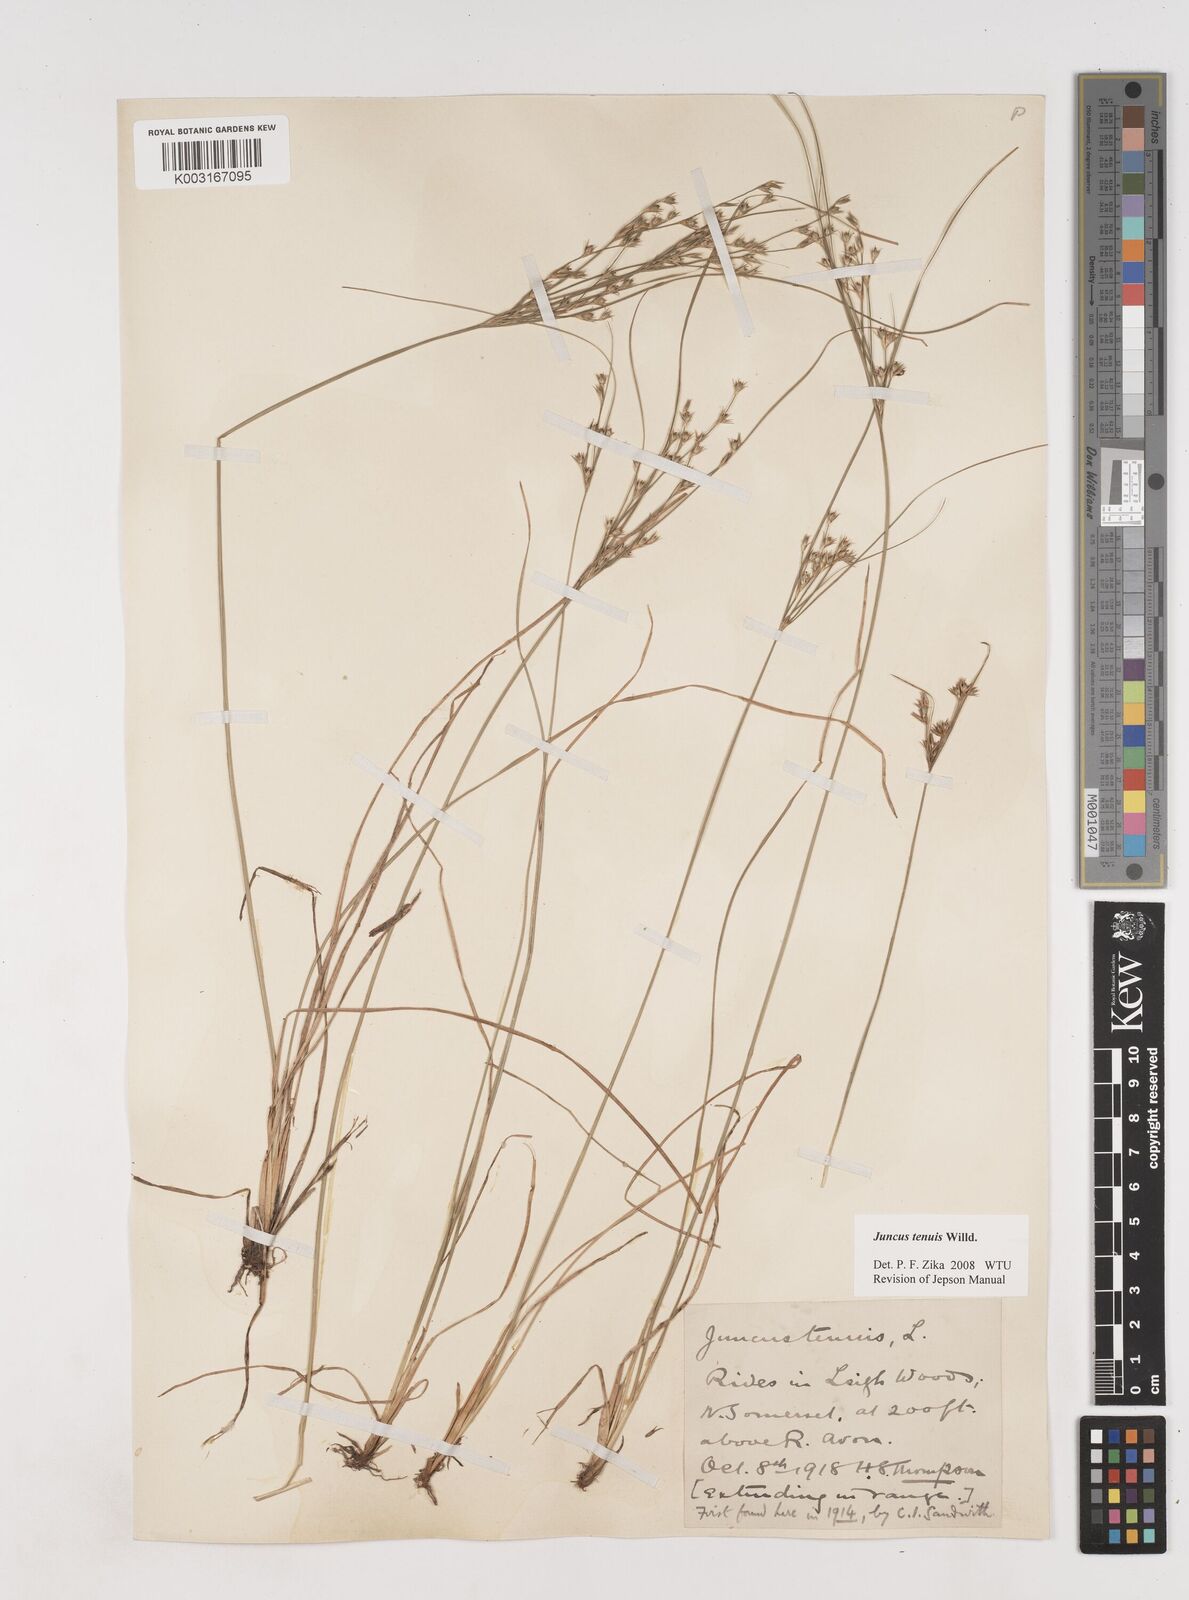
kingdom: Plantae
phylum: Tracheophyta
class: Liliopsida
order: Poales
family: Juncaceae
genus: Juncus
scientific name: Juncus tenuis
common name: Slender rush
